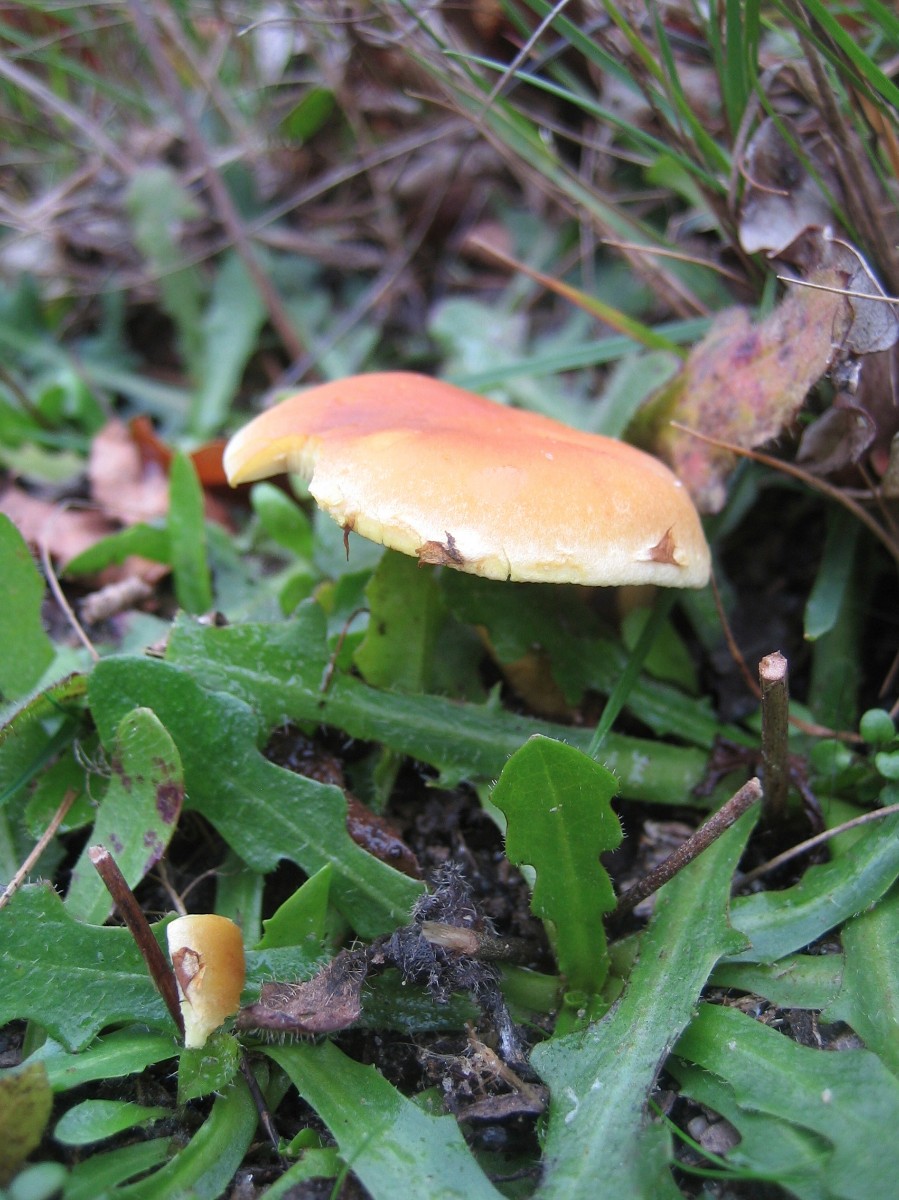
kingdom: Fungi
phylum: Basidiomycota
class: Agaricomycetes
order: Agaricales
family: Strophariaceae
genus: Hypholoma
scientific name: Hypholoma fasciculare
